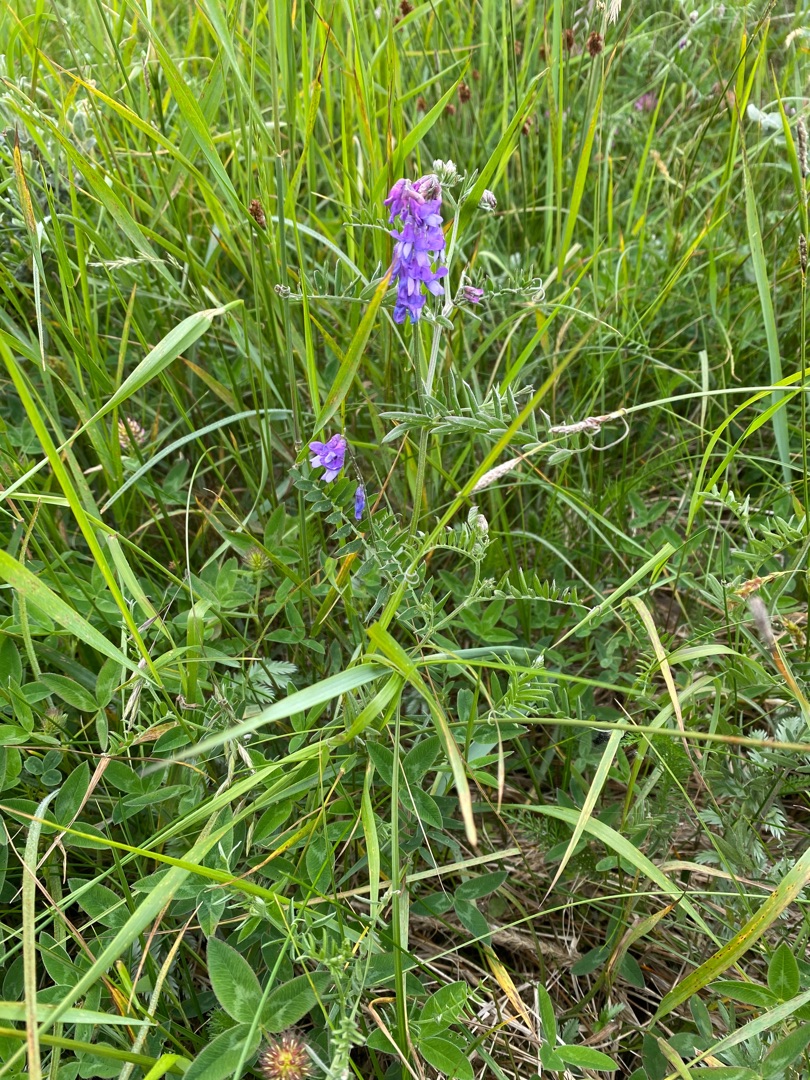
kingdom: Plantae
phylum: Tracheophyta
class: Magnoliopsida
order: Fabales
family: Fabaceae
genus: Vicia
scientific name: Vicia cracca
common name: Muse-vikke
